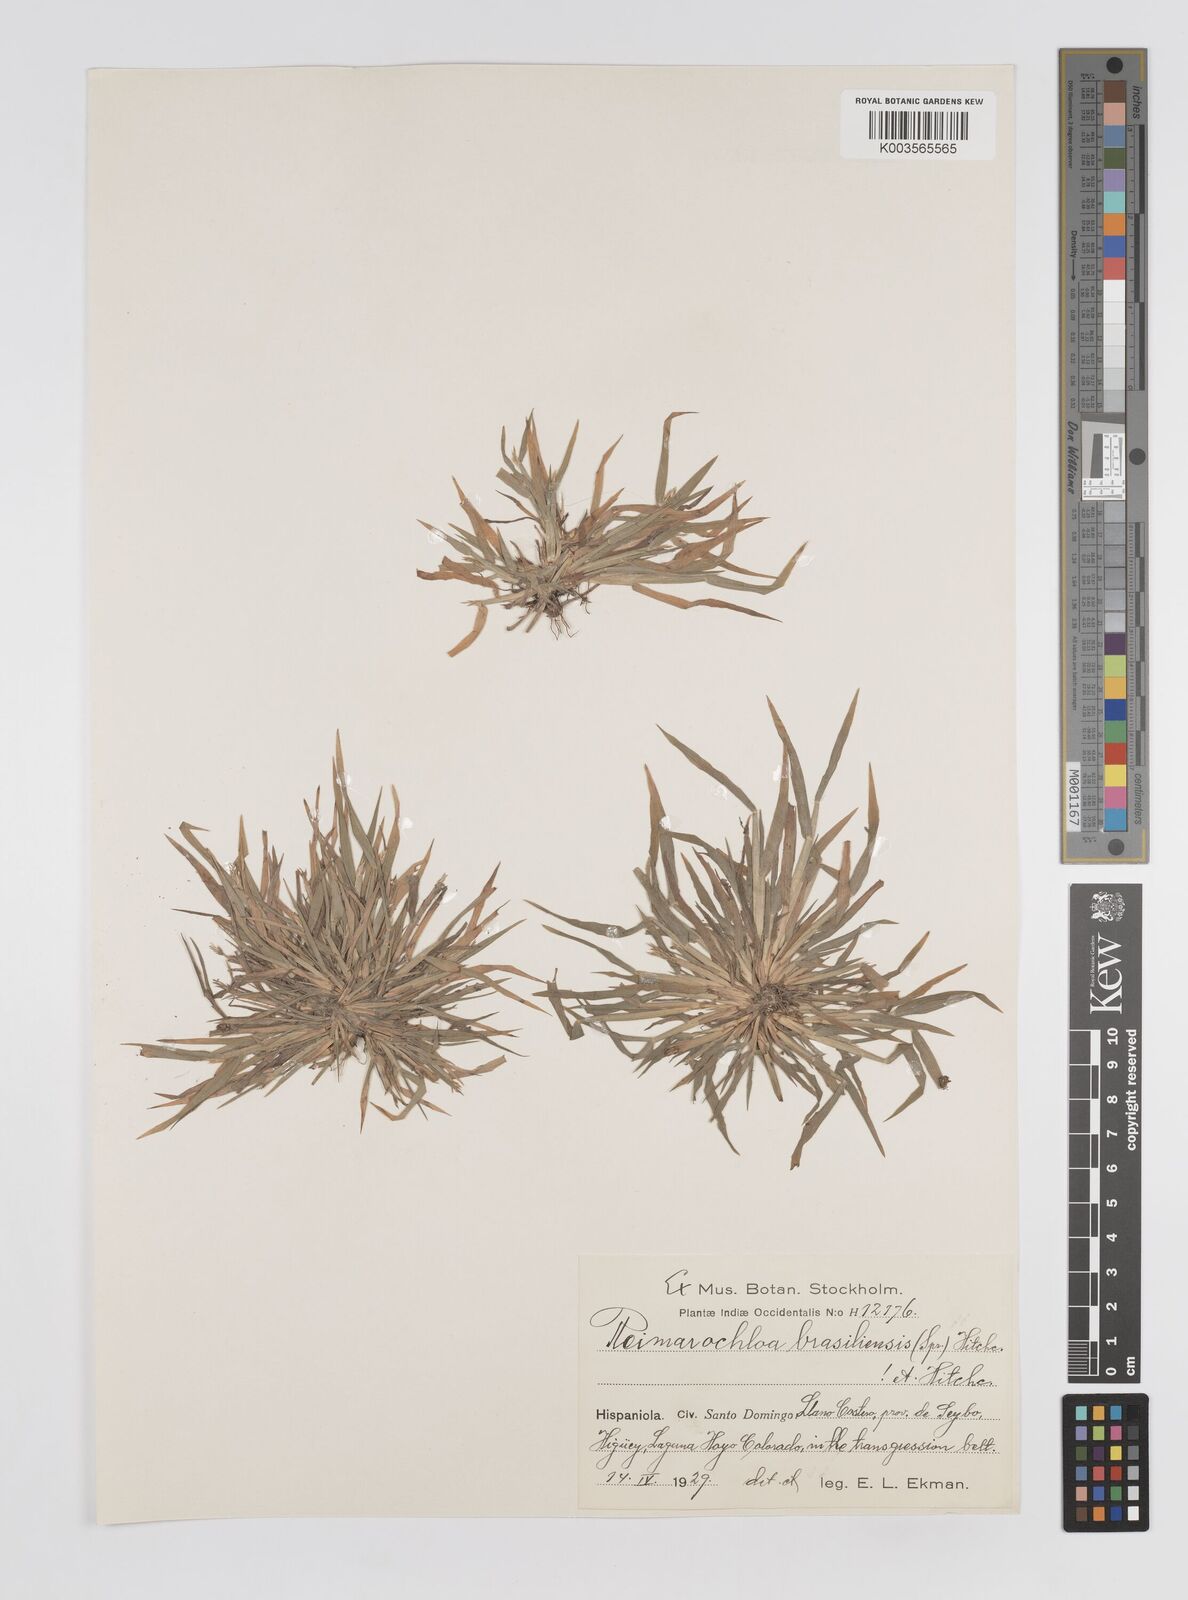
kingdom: Plantae
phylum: Tracheophyta
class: Liliopsida
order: Poales
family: Poaceae
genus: Paspalum
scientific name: Paspalum stagnophilum
